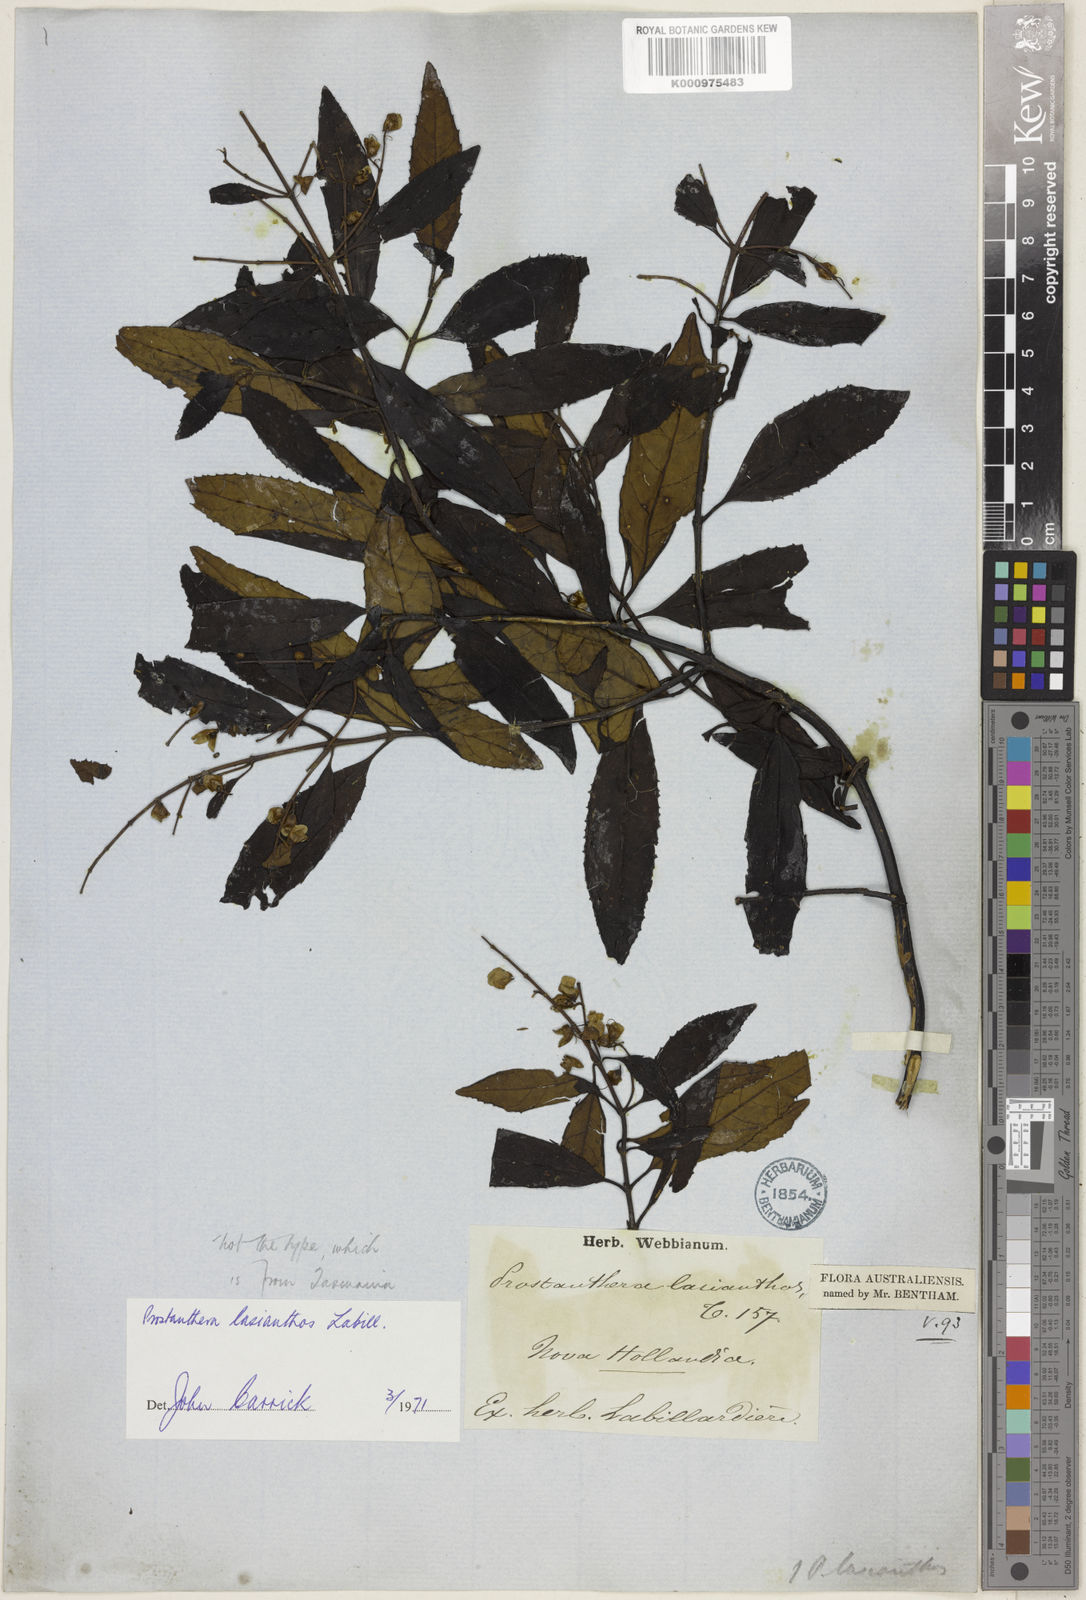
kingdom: Plantae
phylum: Tracheophyta
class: Magnoliopsida
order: Lamiales
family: Lamiaceae
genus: Prostanthera
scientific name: Prostanthera lasianthos
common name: Mountain-lilac
